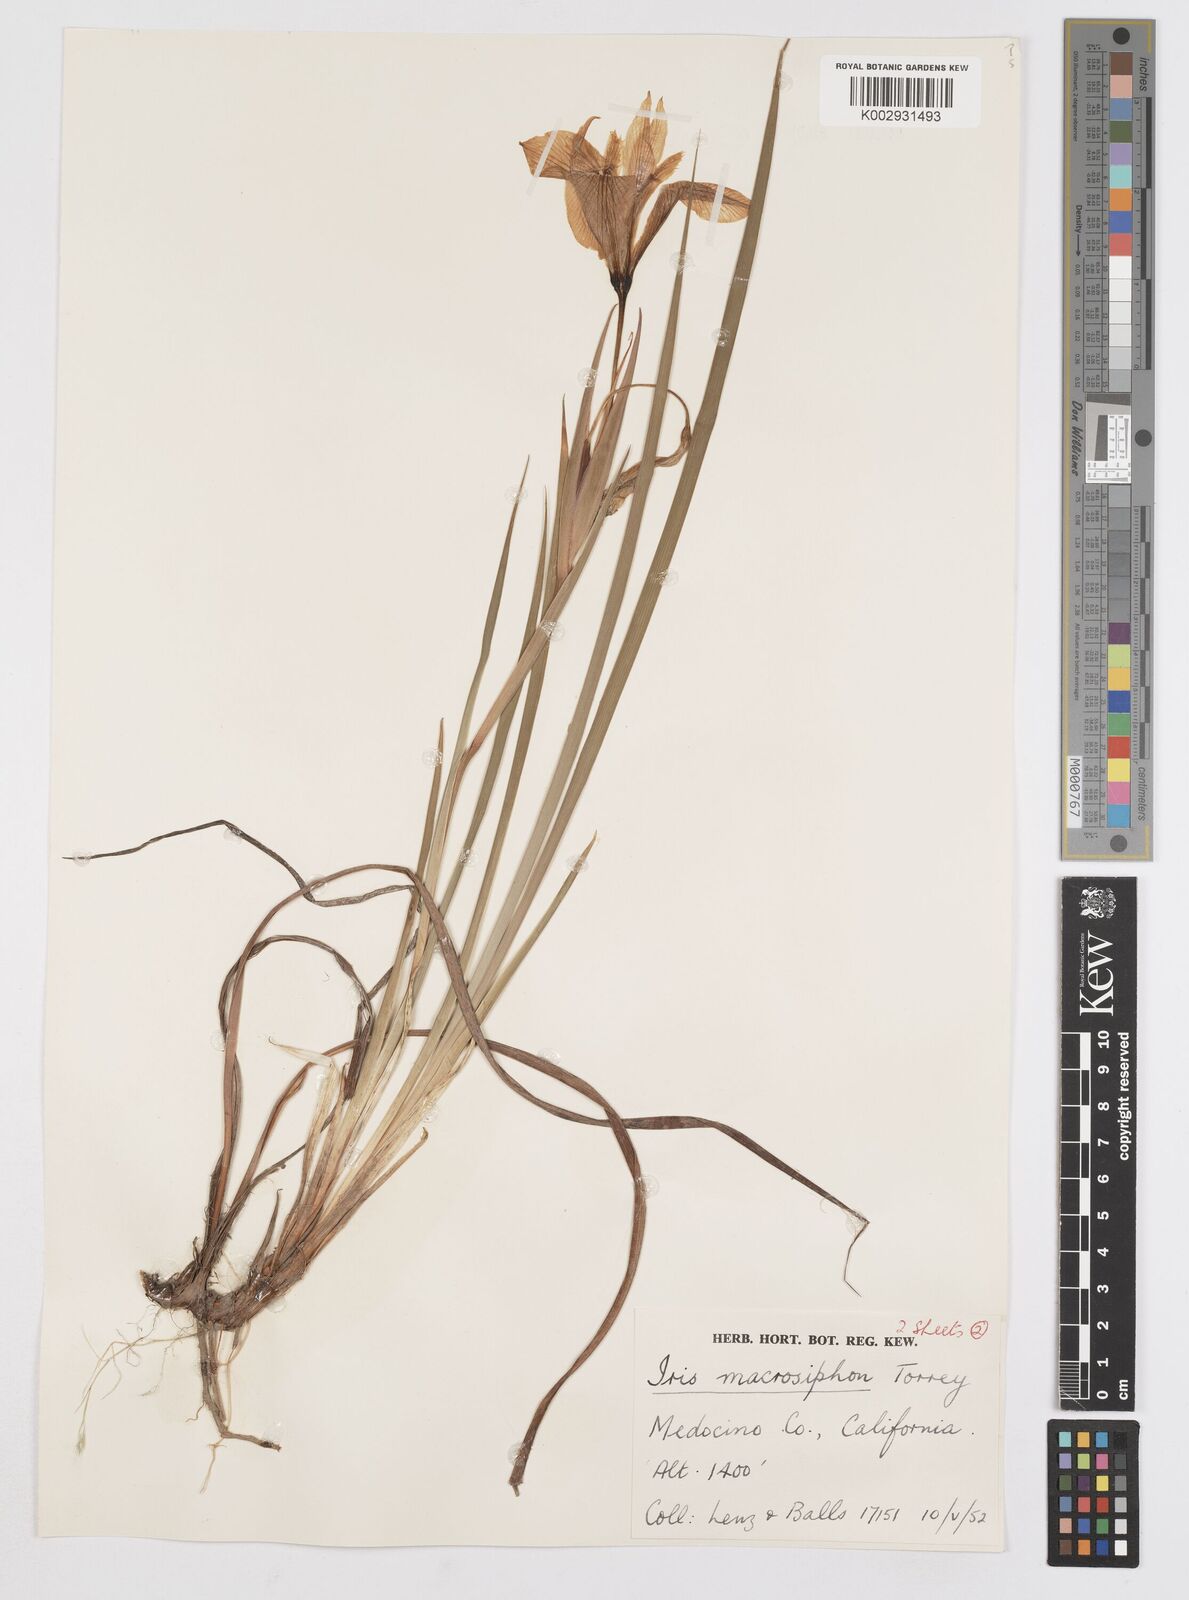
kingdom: Plantae
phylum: Tracheophyta
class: Liliopsida
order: Asparagales
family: Iridaceae
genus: Iris
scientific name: Iris macrosiphon
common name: Ground iris
